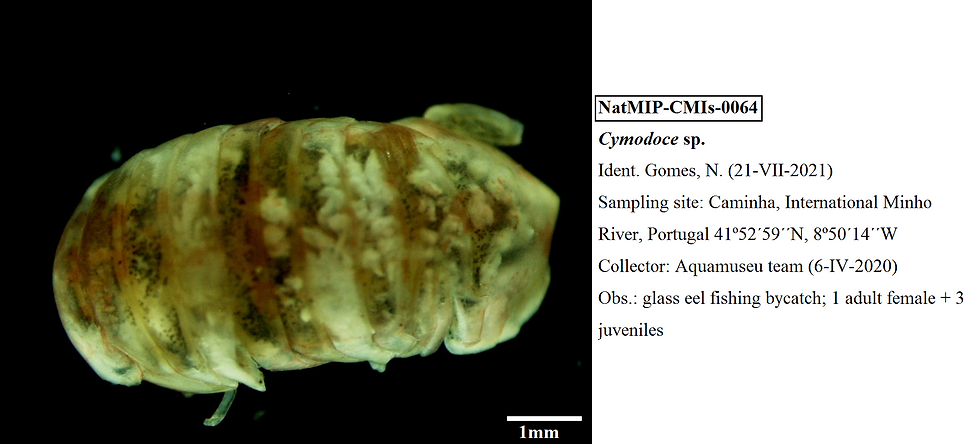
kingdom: Animalia
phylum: Arthropoda
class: Malacostraca
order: Isopoda
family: Sphaeromatidae
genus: Cymodoce
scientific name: Cymodoce
